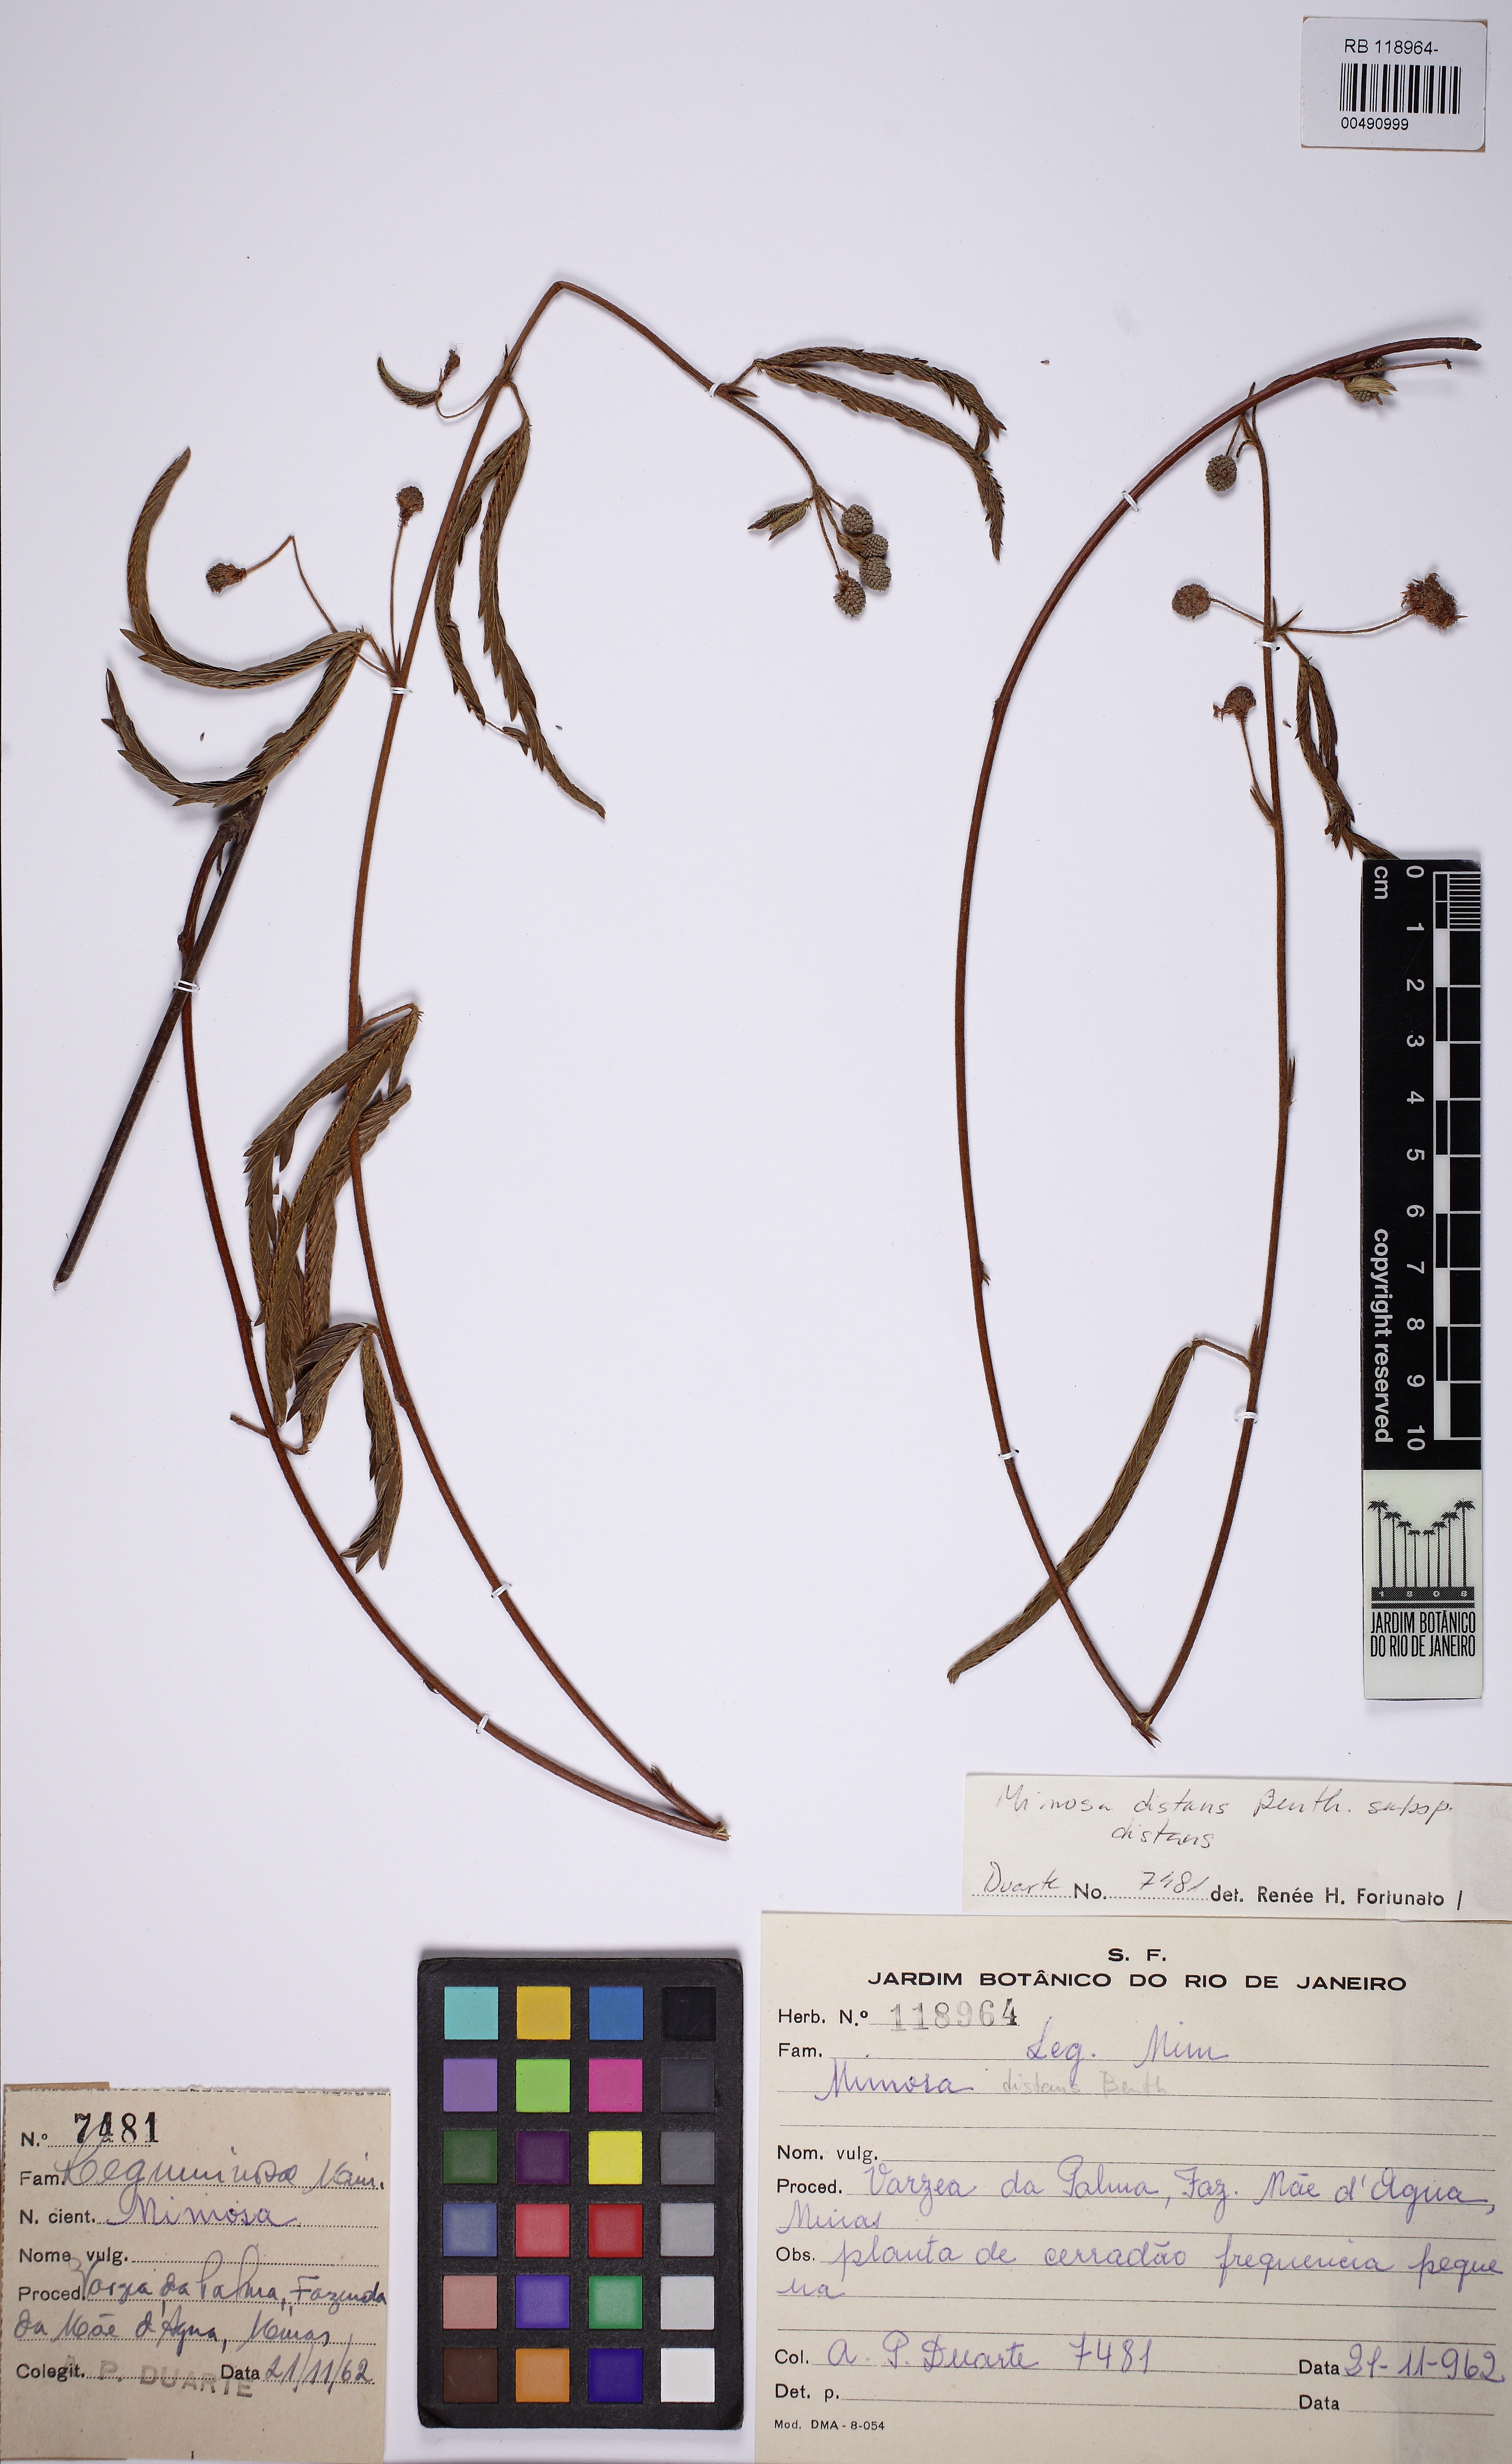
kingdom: Plantae
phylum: Tracheophyta
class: Magnoliopsida
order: Fabales
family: Fabaceae
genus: Mimosa
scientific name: Mimosa distans
